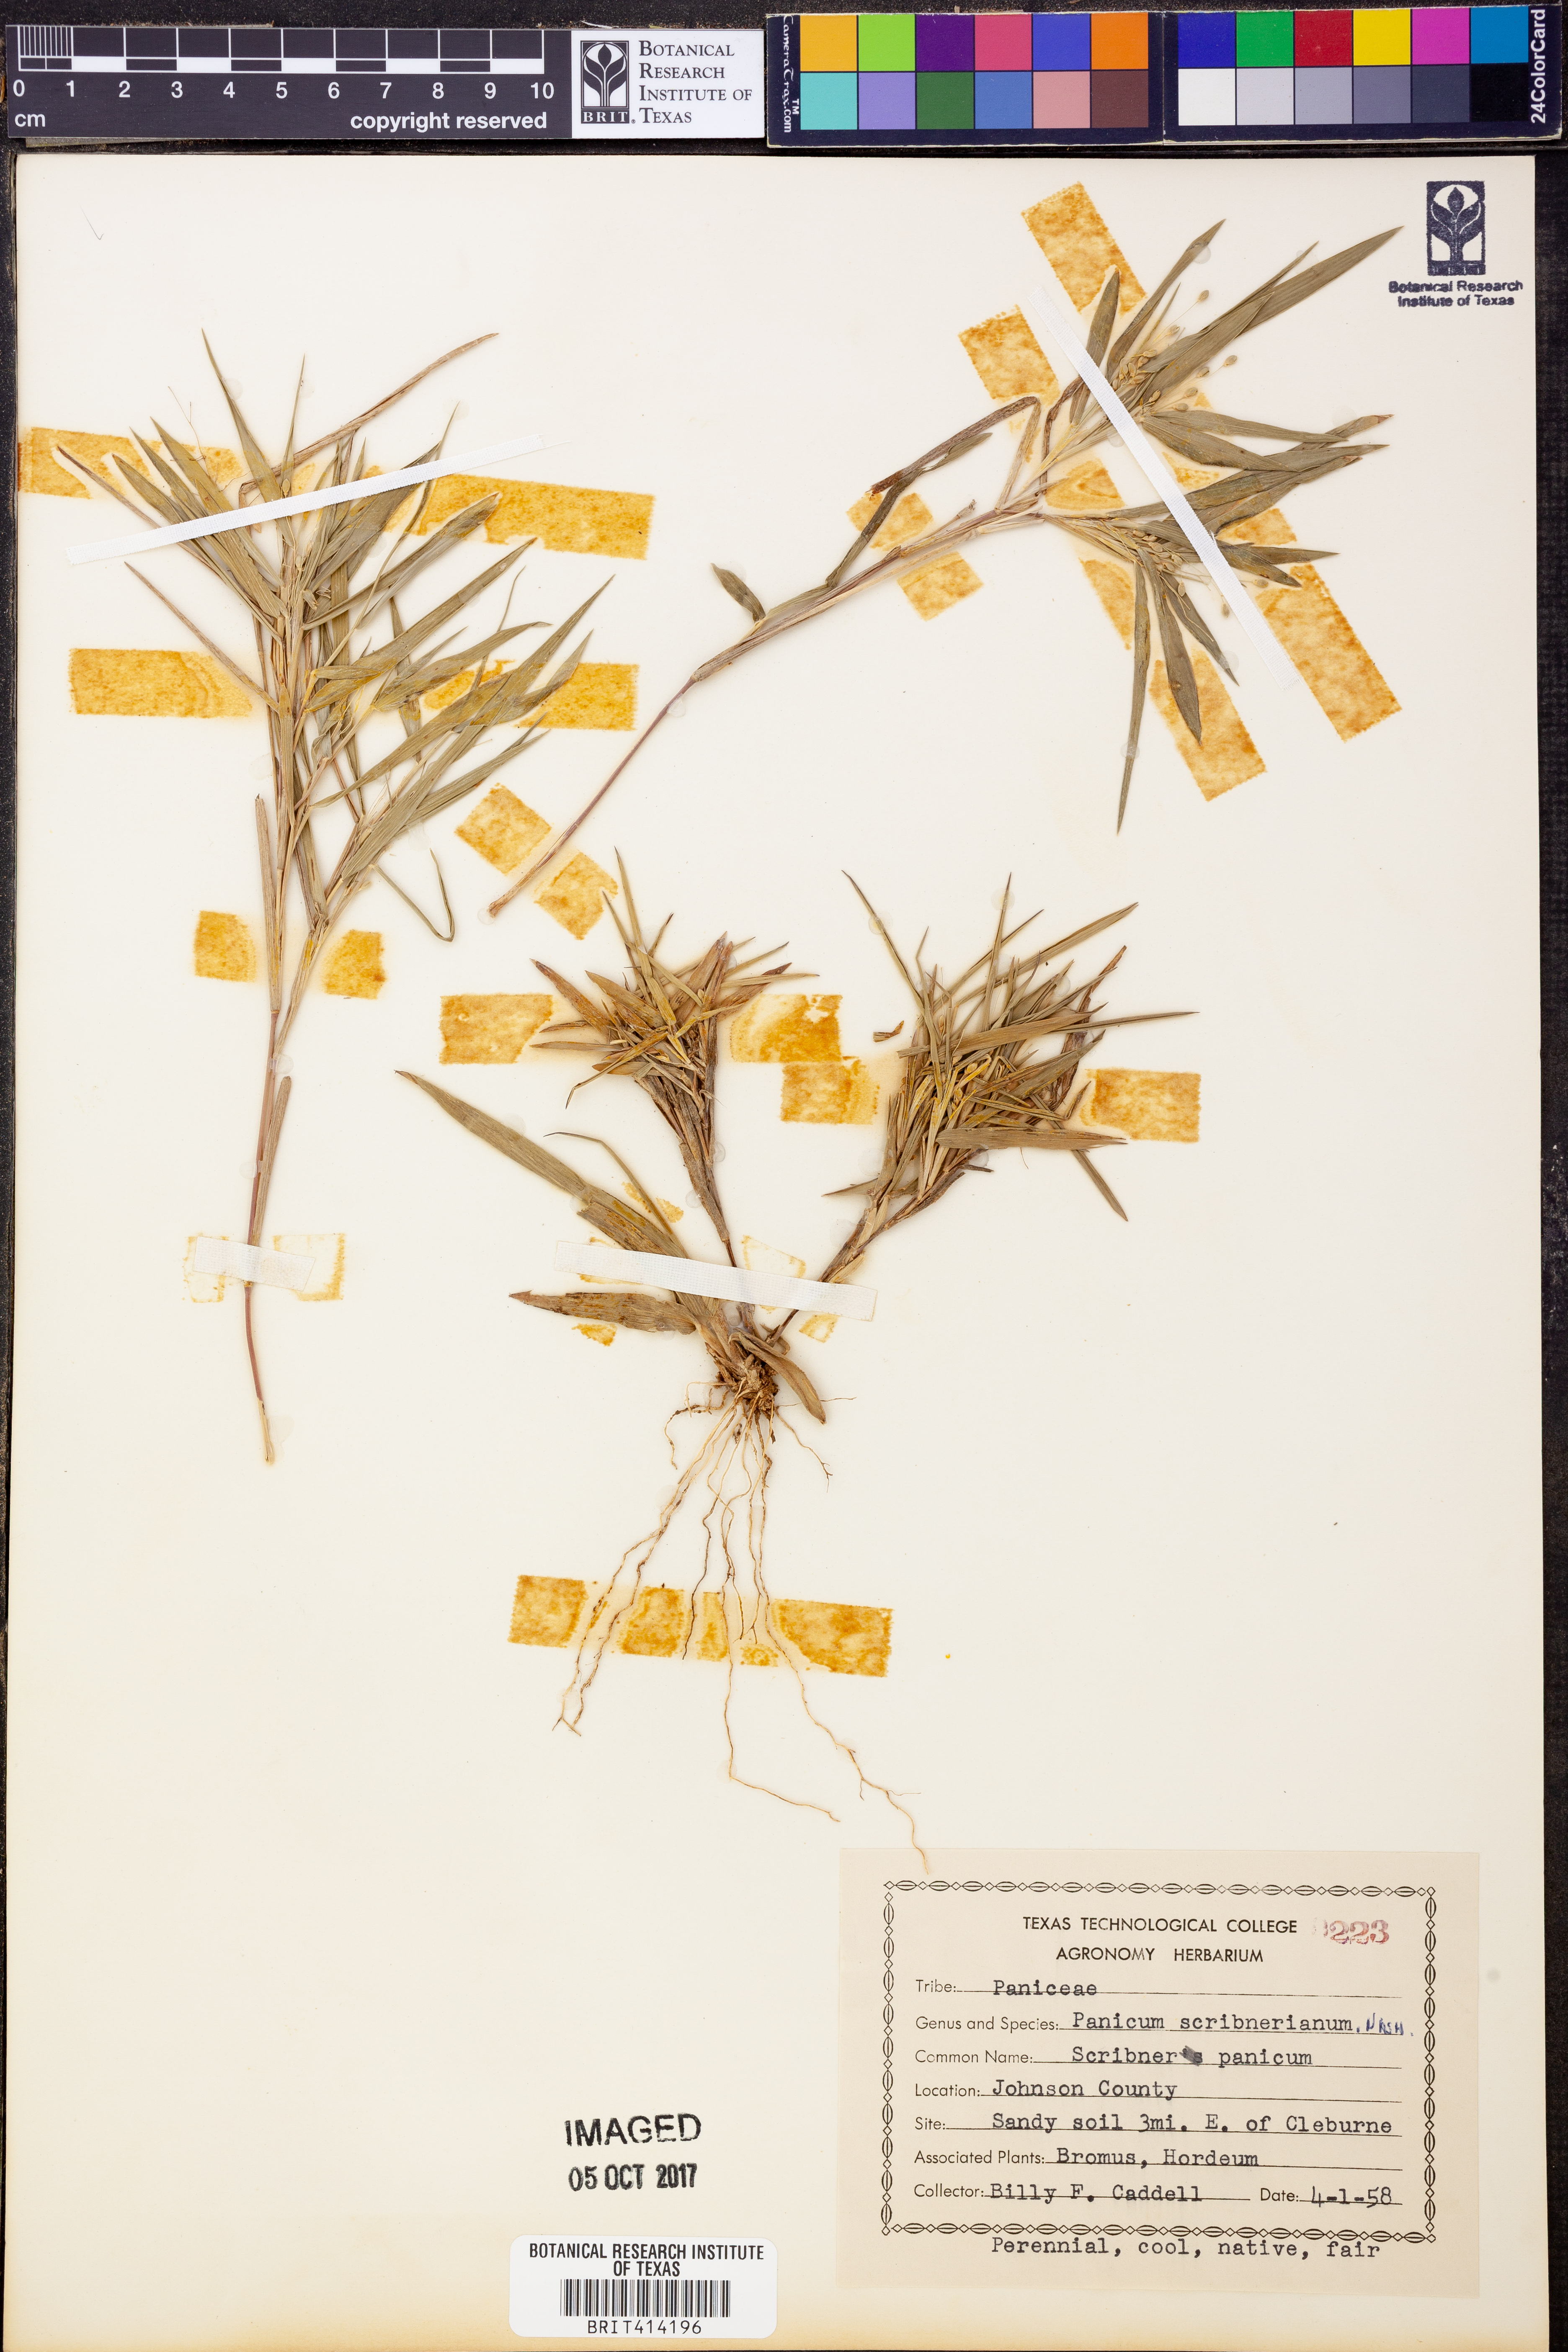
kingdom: Plantae
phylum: Tracheophyta
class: Liliopsida
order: Poales
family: Poaceae
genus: Dichanthelium
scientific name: Dichanthelium scribnerianum
